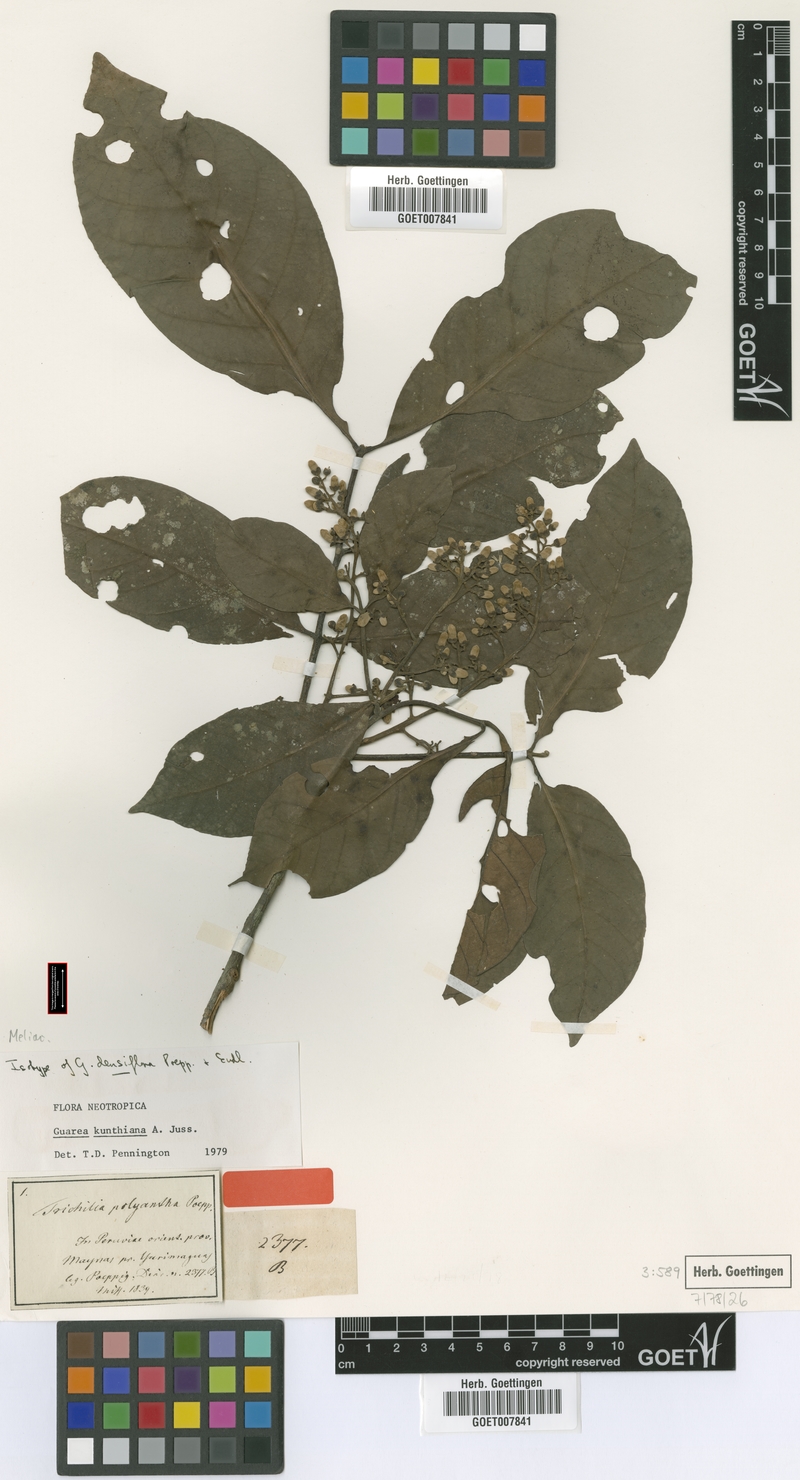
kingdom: Plantae
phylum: Tracheophyta
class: Magnoliopsida
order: Sapindales
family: Meliaceae
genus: Guarea
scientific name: Guarea kunthiana
